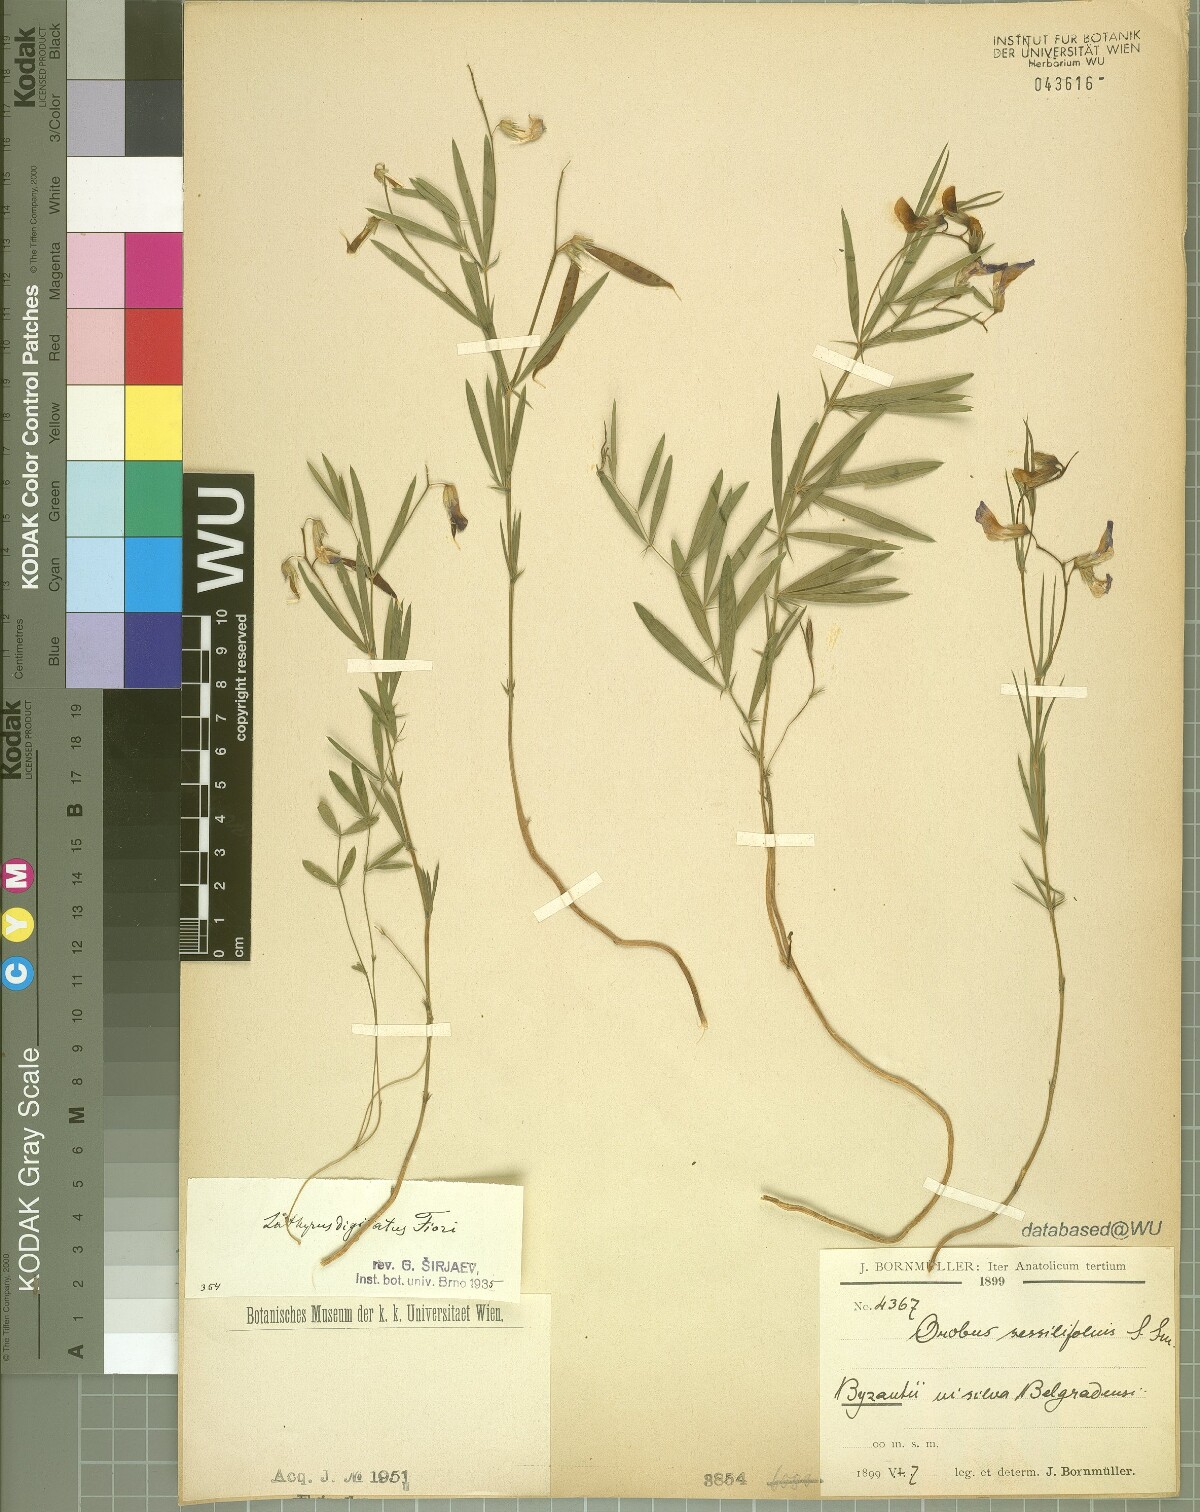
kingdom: Plantae
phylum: Tracheophyta
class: Magnoliopsida
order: Fabales
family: Fabaceae
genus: Lathyrus
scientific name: Lathyrus digitatus
